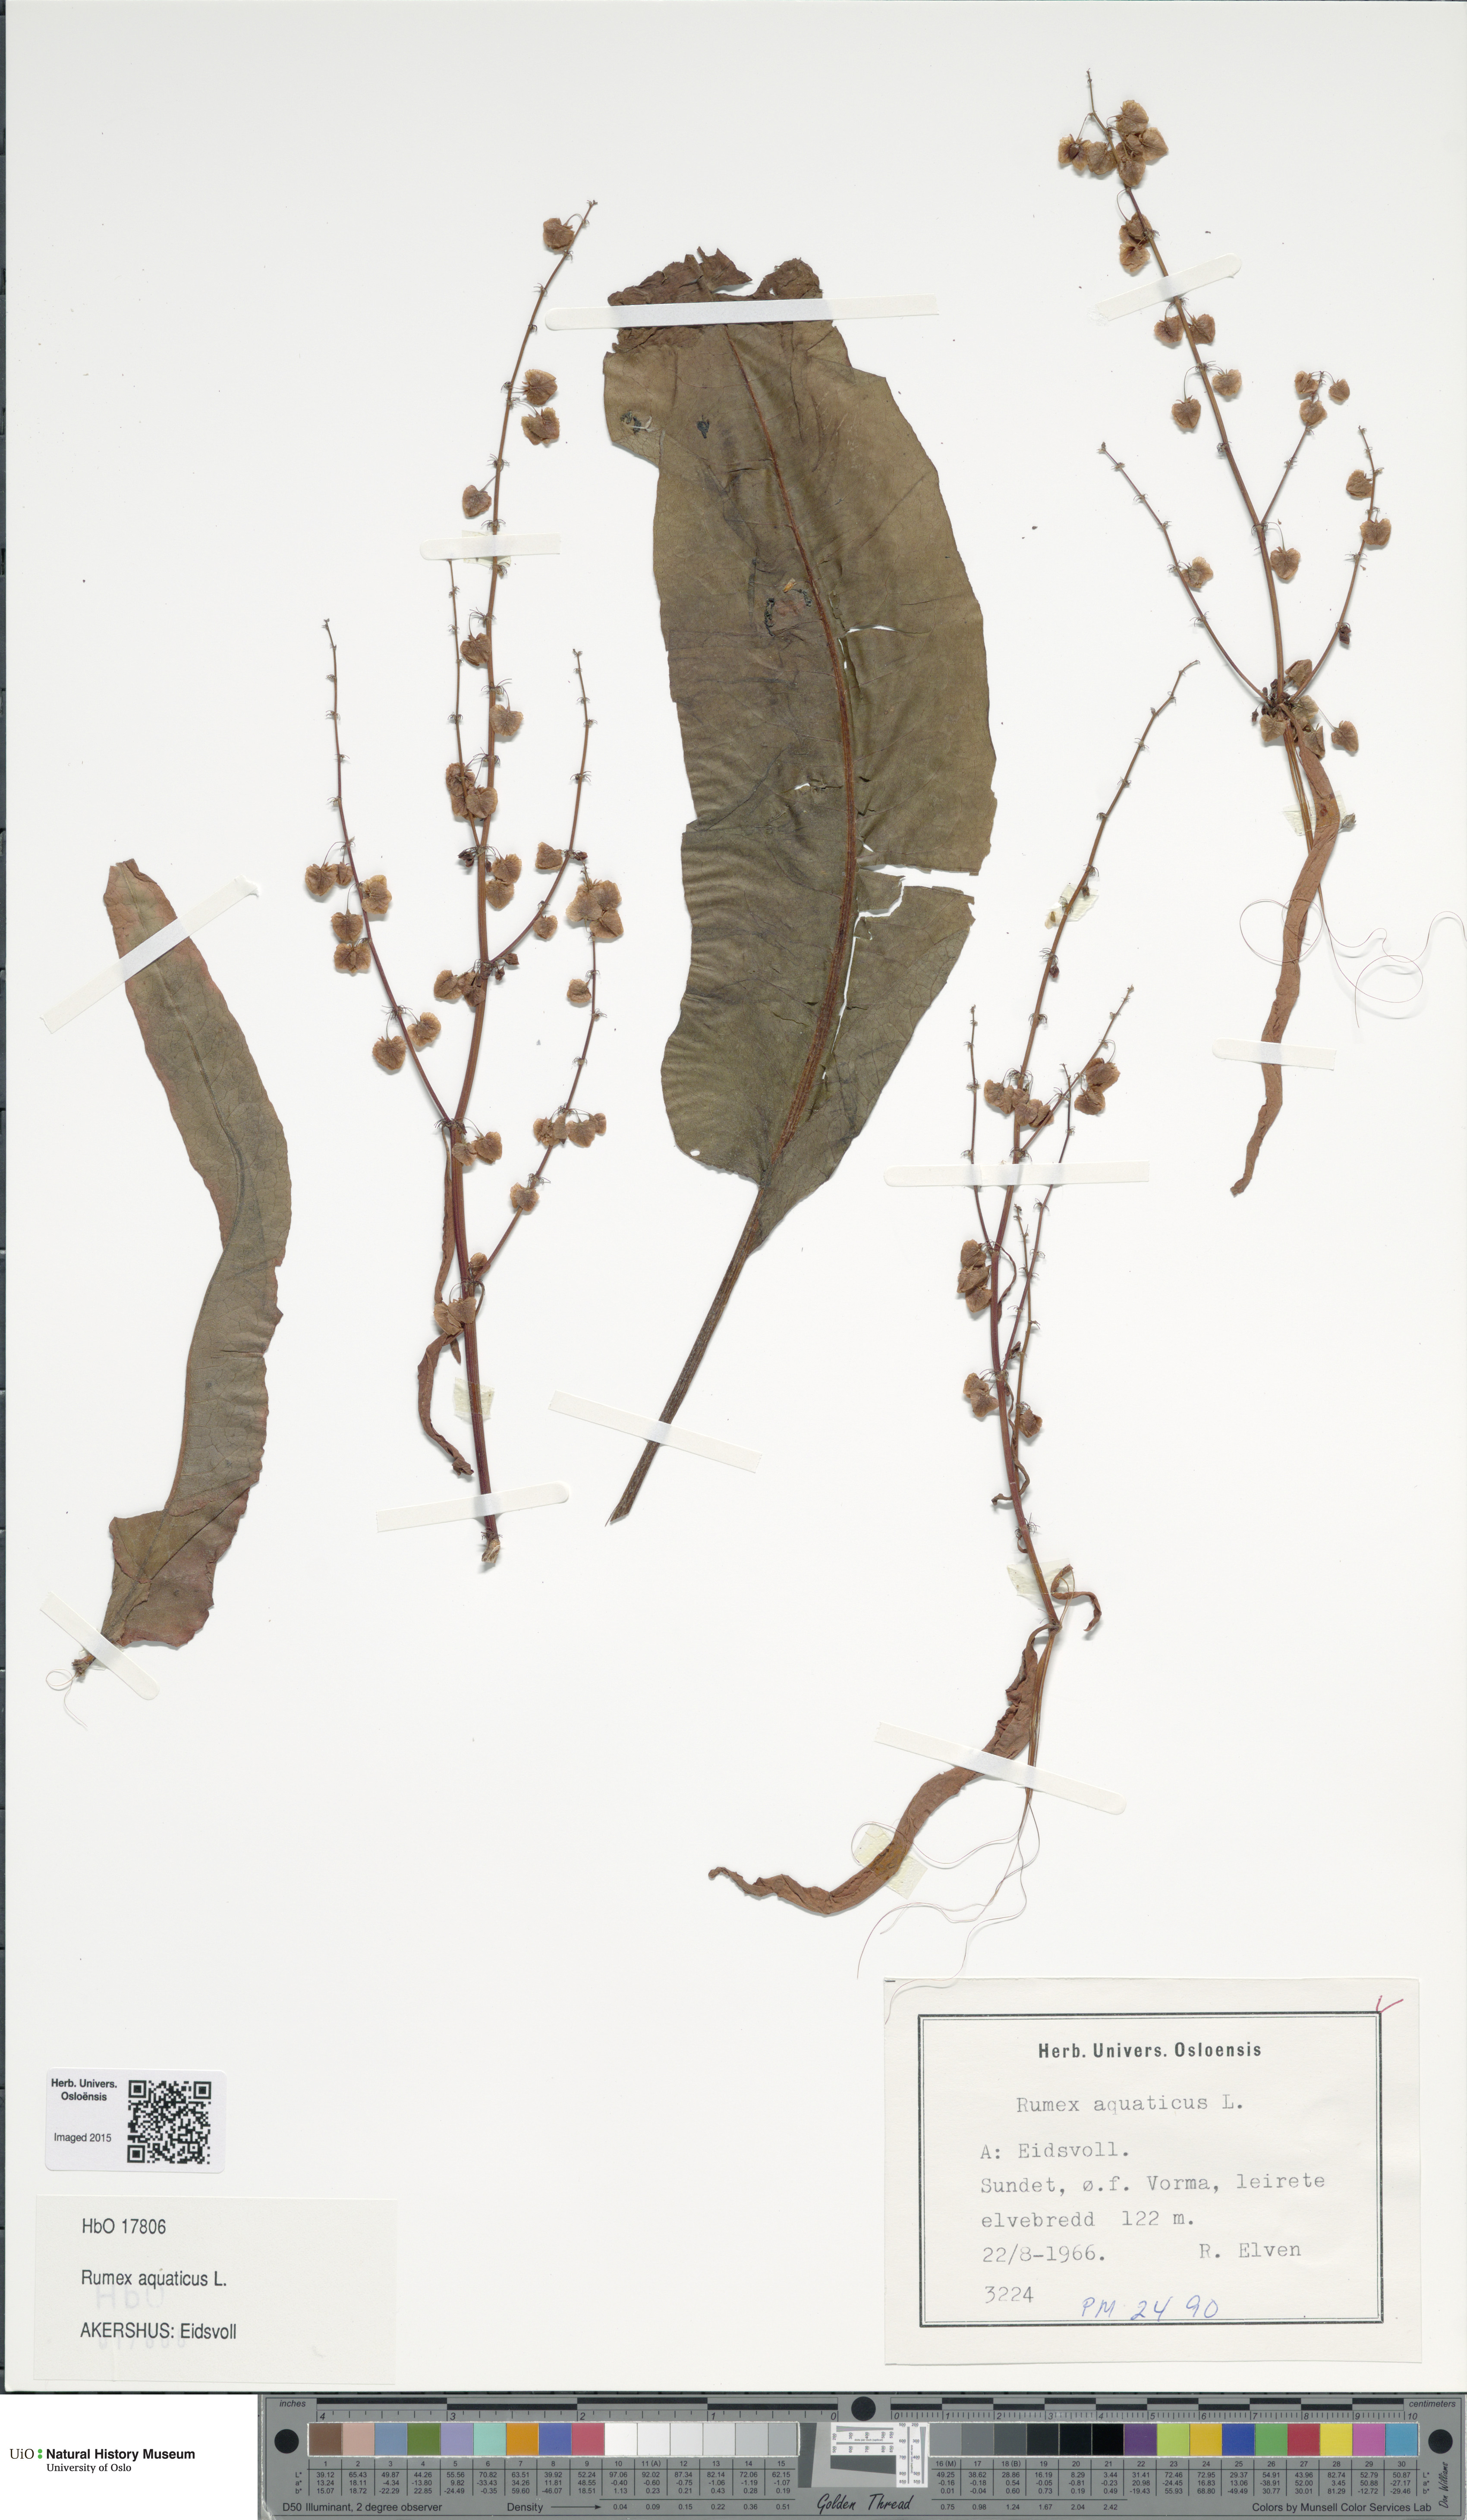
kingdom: Plantae
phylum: Tracheophyta
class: Magnoliopsida
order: Caryophyllales
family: Polygonaceae
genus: Rumex
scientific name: Rumex aquaticus
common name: Scottish dock
